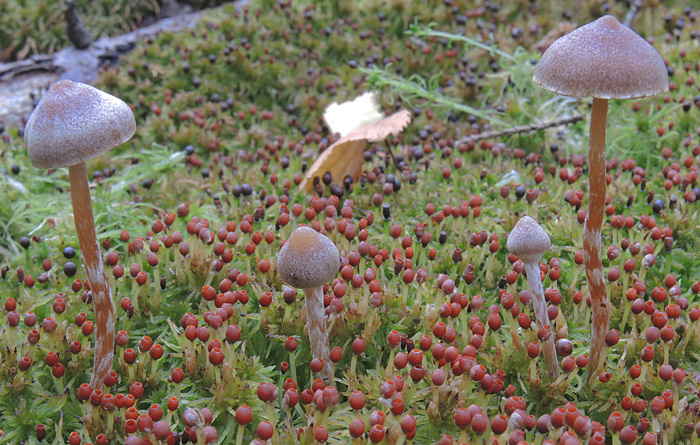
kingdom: Fungi
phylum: Basidiomycota
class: Agaricomycetes
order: Agaricales
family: Hymenogastraceae
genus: Galerina
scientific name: Galerina paludosa
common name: mose-hjelmhat
